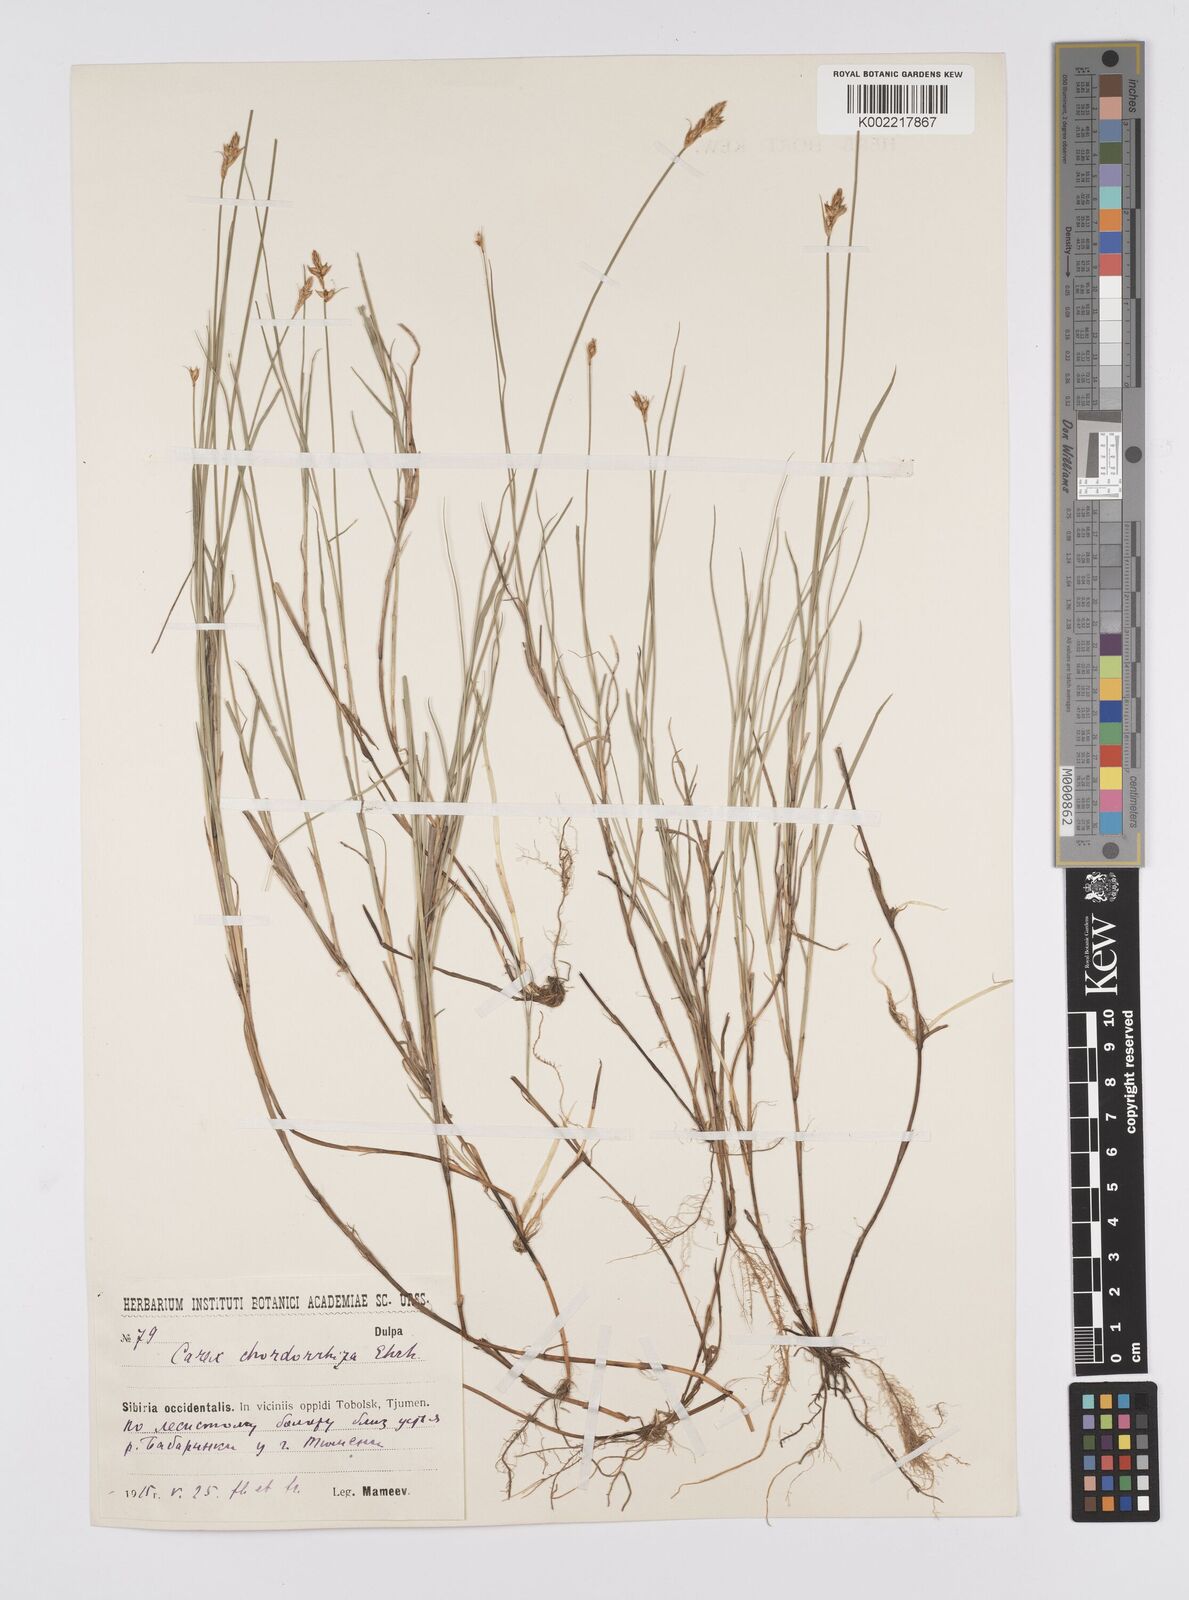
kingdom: Plantae
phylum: Tracheophyta
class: Liliopsida
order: Poales
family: Cyperaceae
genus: Carex
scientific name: Carex
